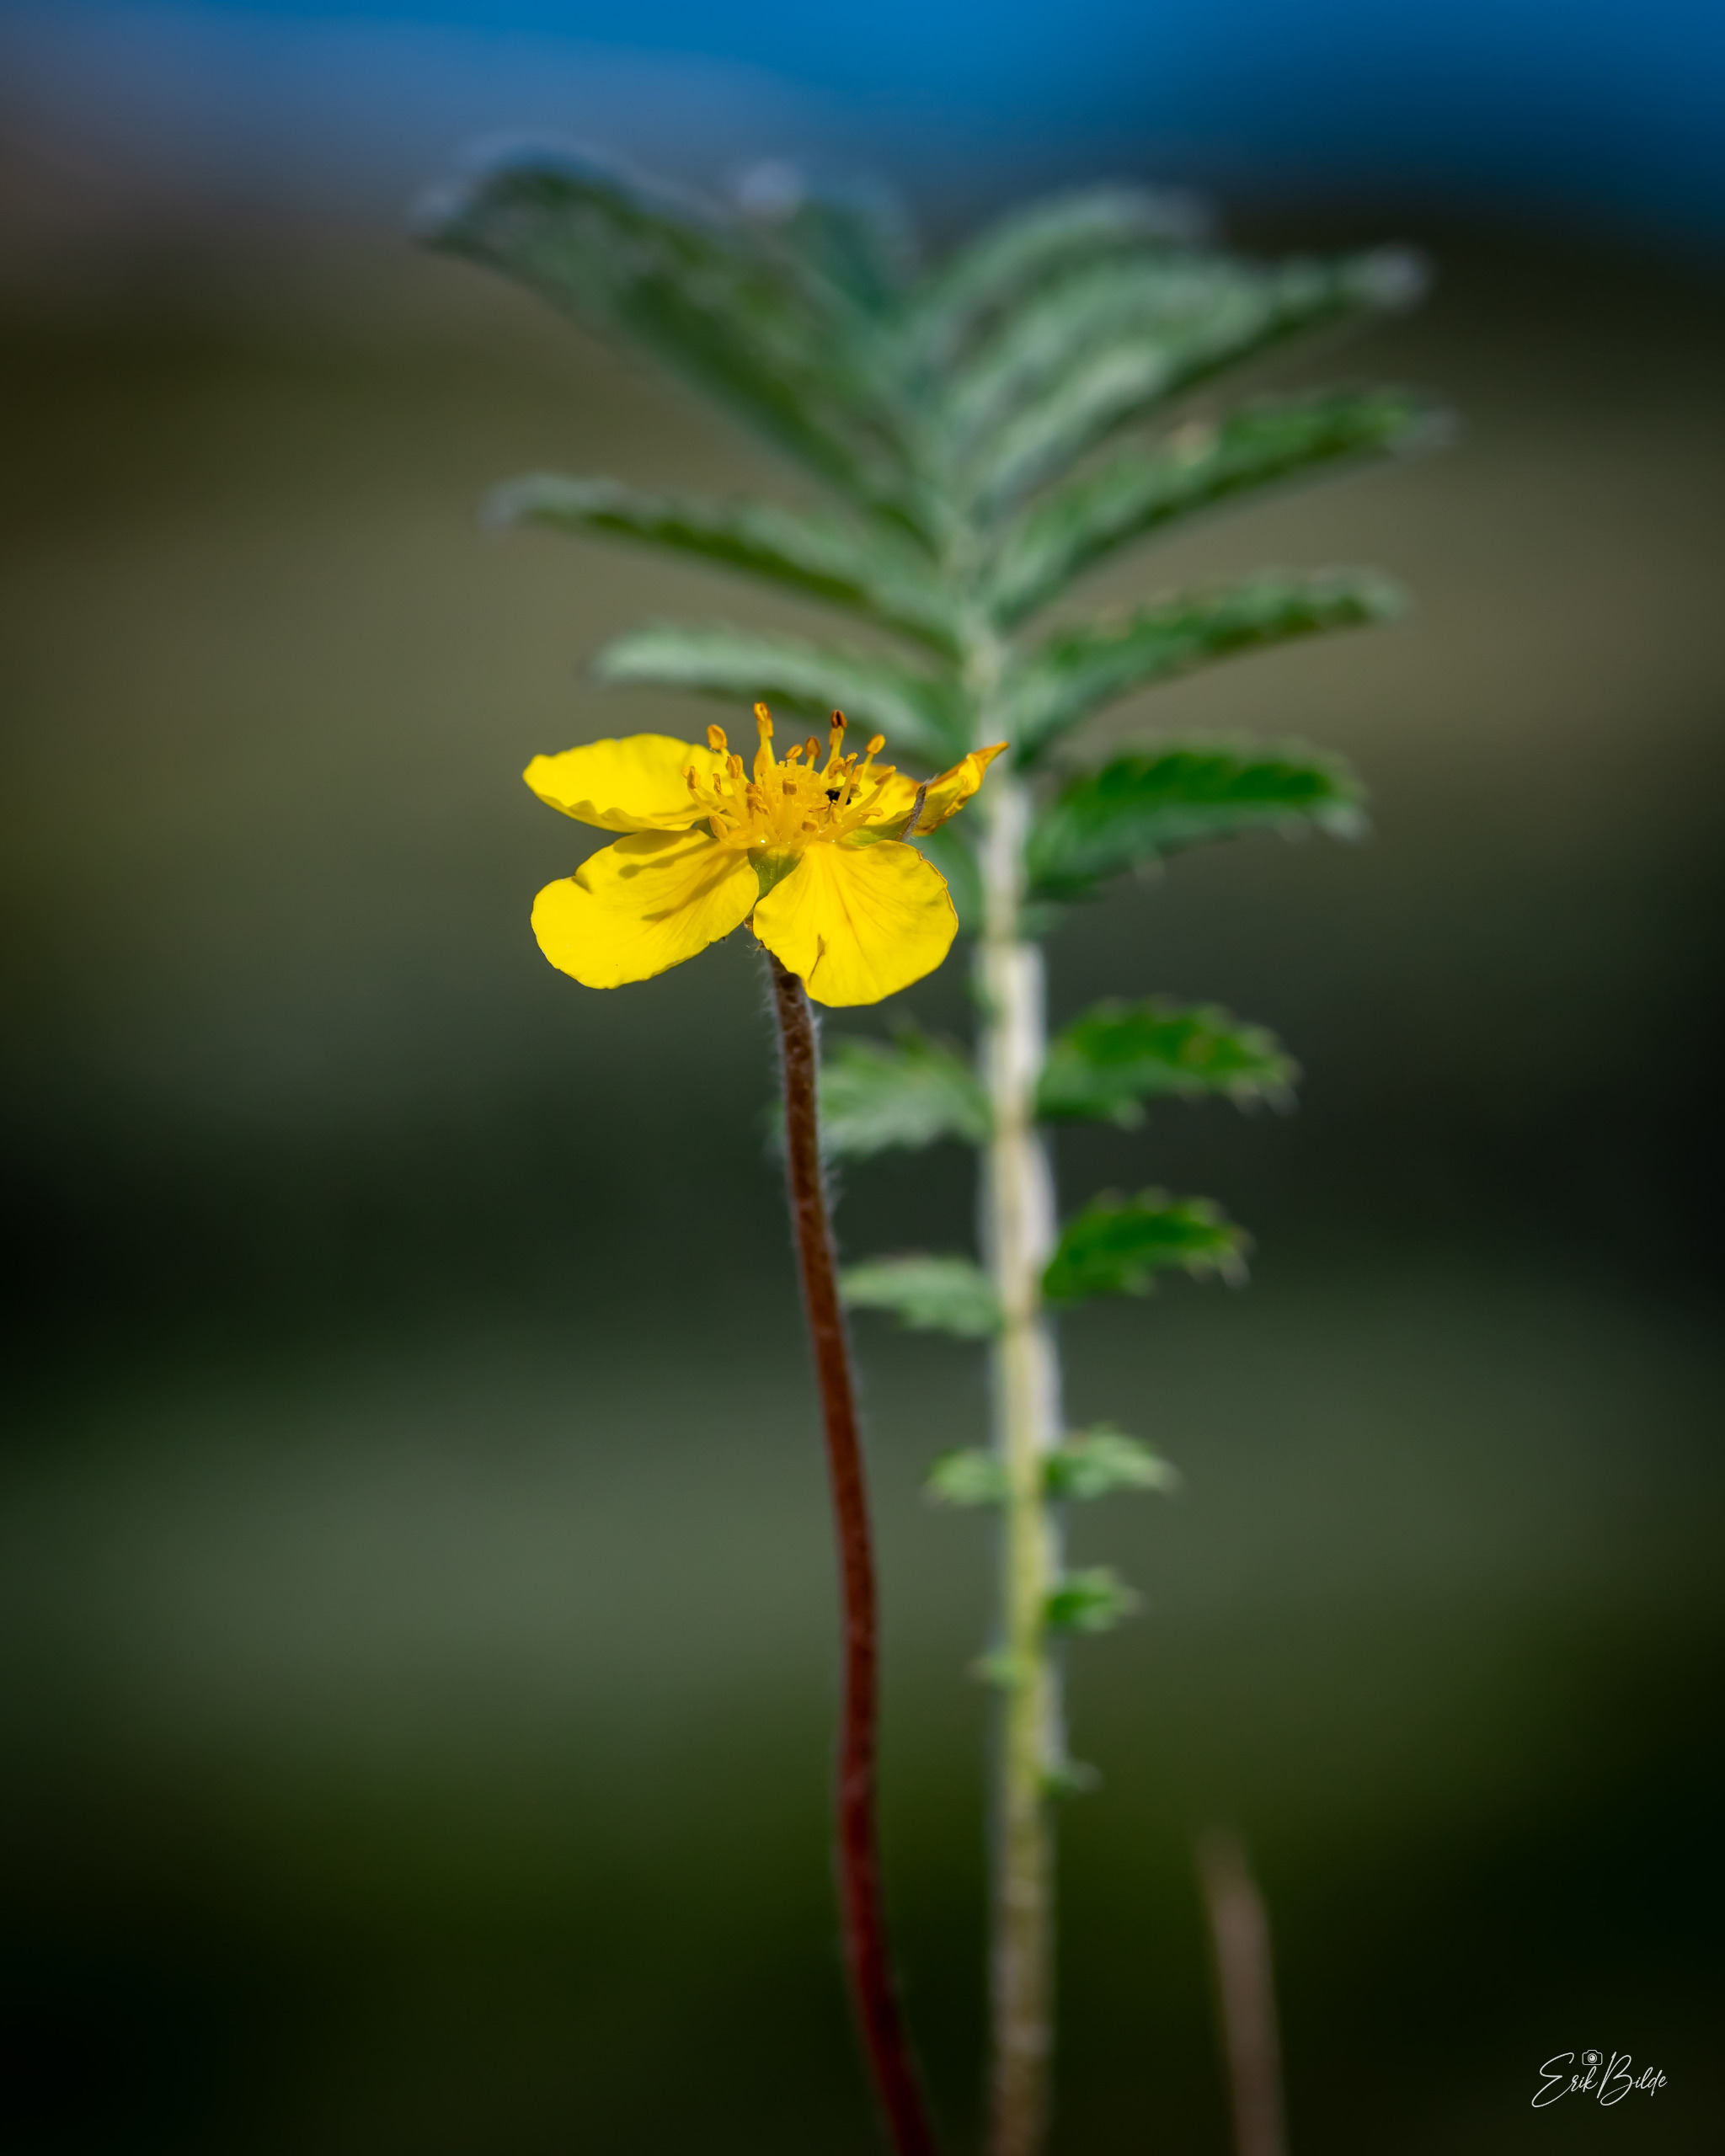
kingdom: Plantae
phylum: Tracheophyta
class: Magnoliopsida
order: Rosales
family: Rosaceae
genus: Argentina
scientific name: Argentina anserina
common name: Gåsepotentil
